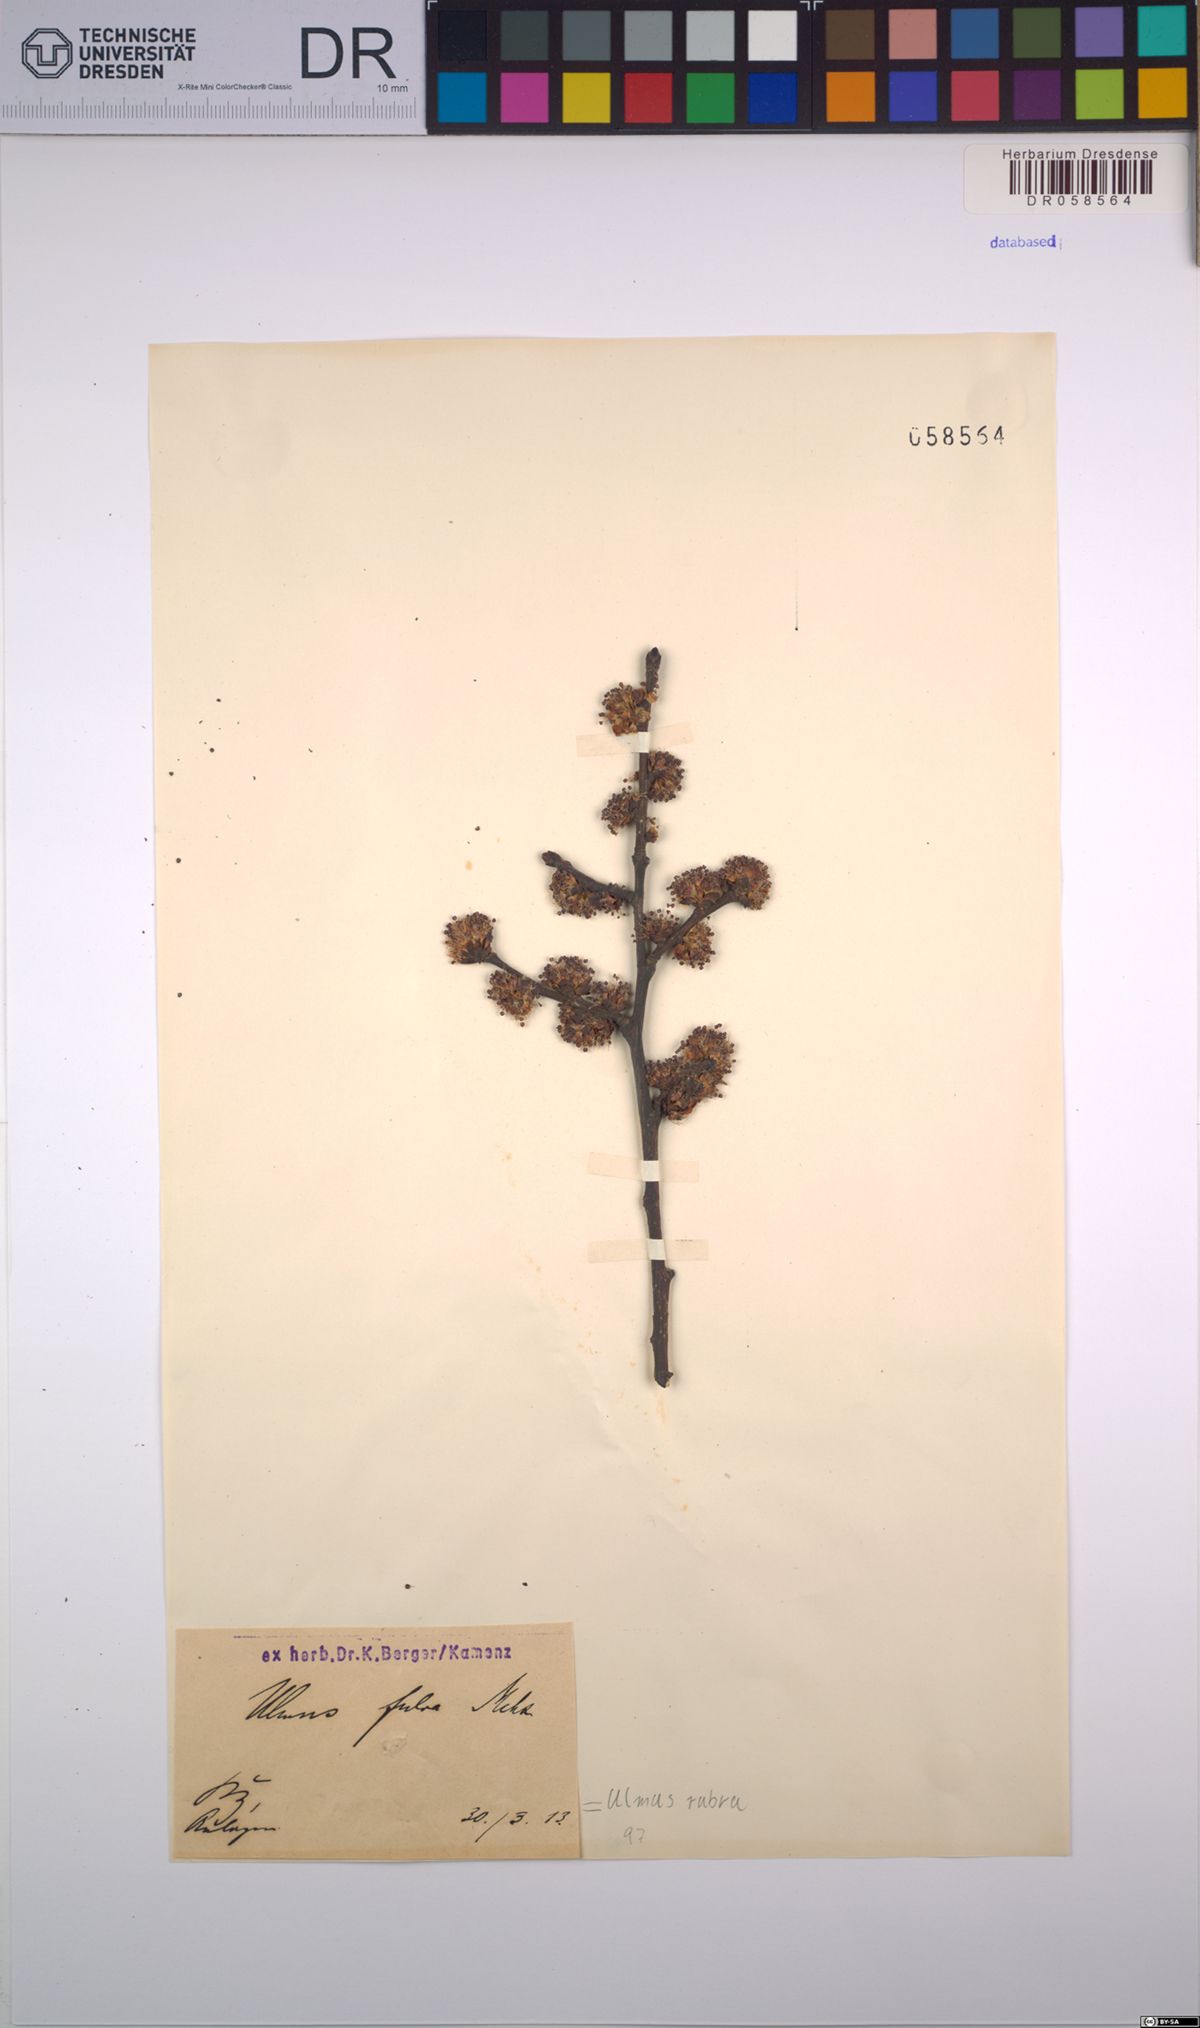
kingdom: Plantae
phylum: Tracheophyta
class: Magnoliopsida
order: Rosales
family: Ulmaceae
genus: Ulmus
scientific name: Ulmus rubra
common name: Slippery elm
